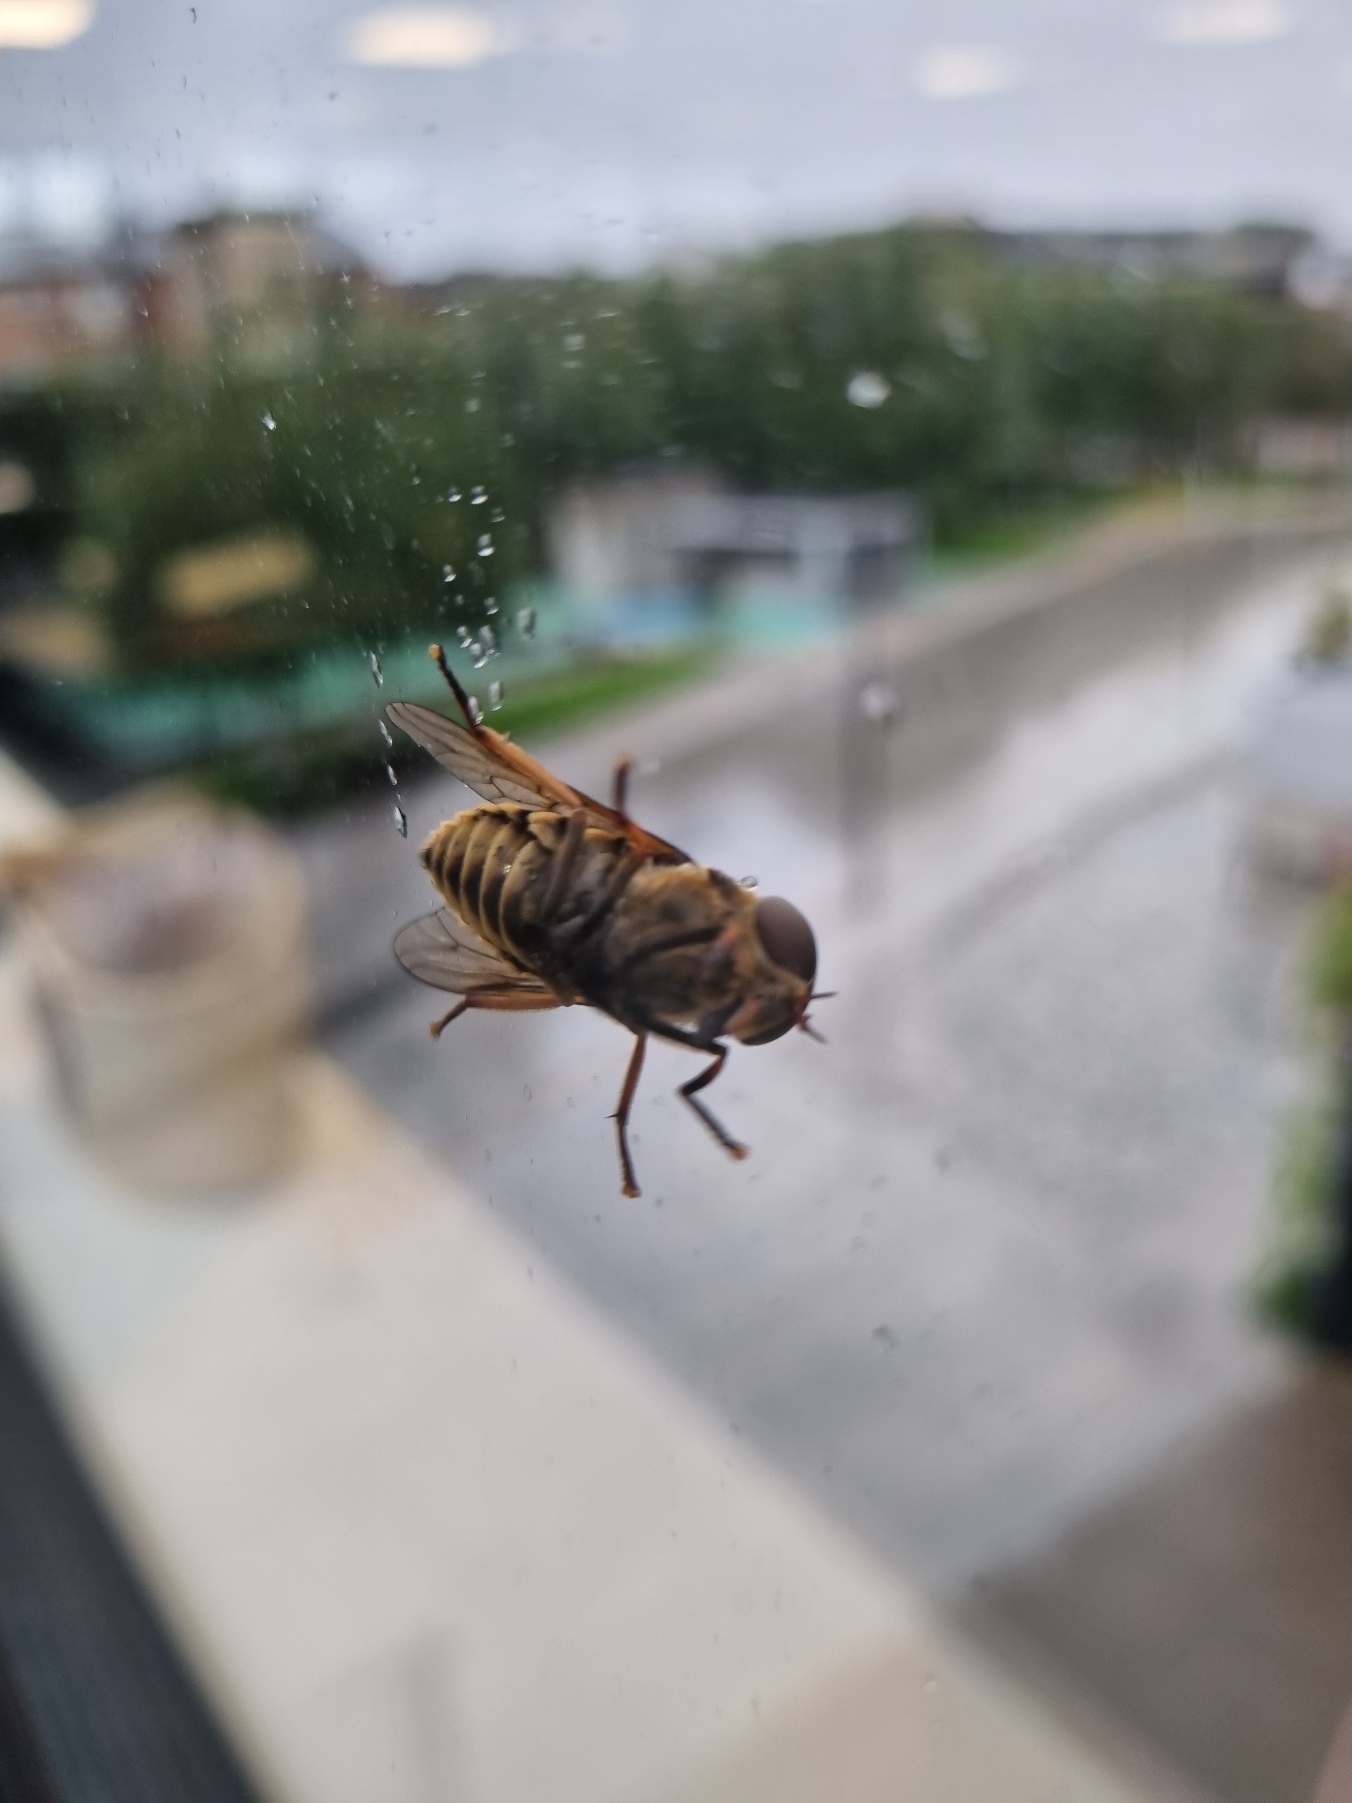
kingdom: Animalia
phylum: Arthropoda
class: Insecta
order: Diptera
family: Tabanidae
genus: Tabanus
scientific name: Tabanus sudeticus
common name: Hesteklæg
